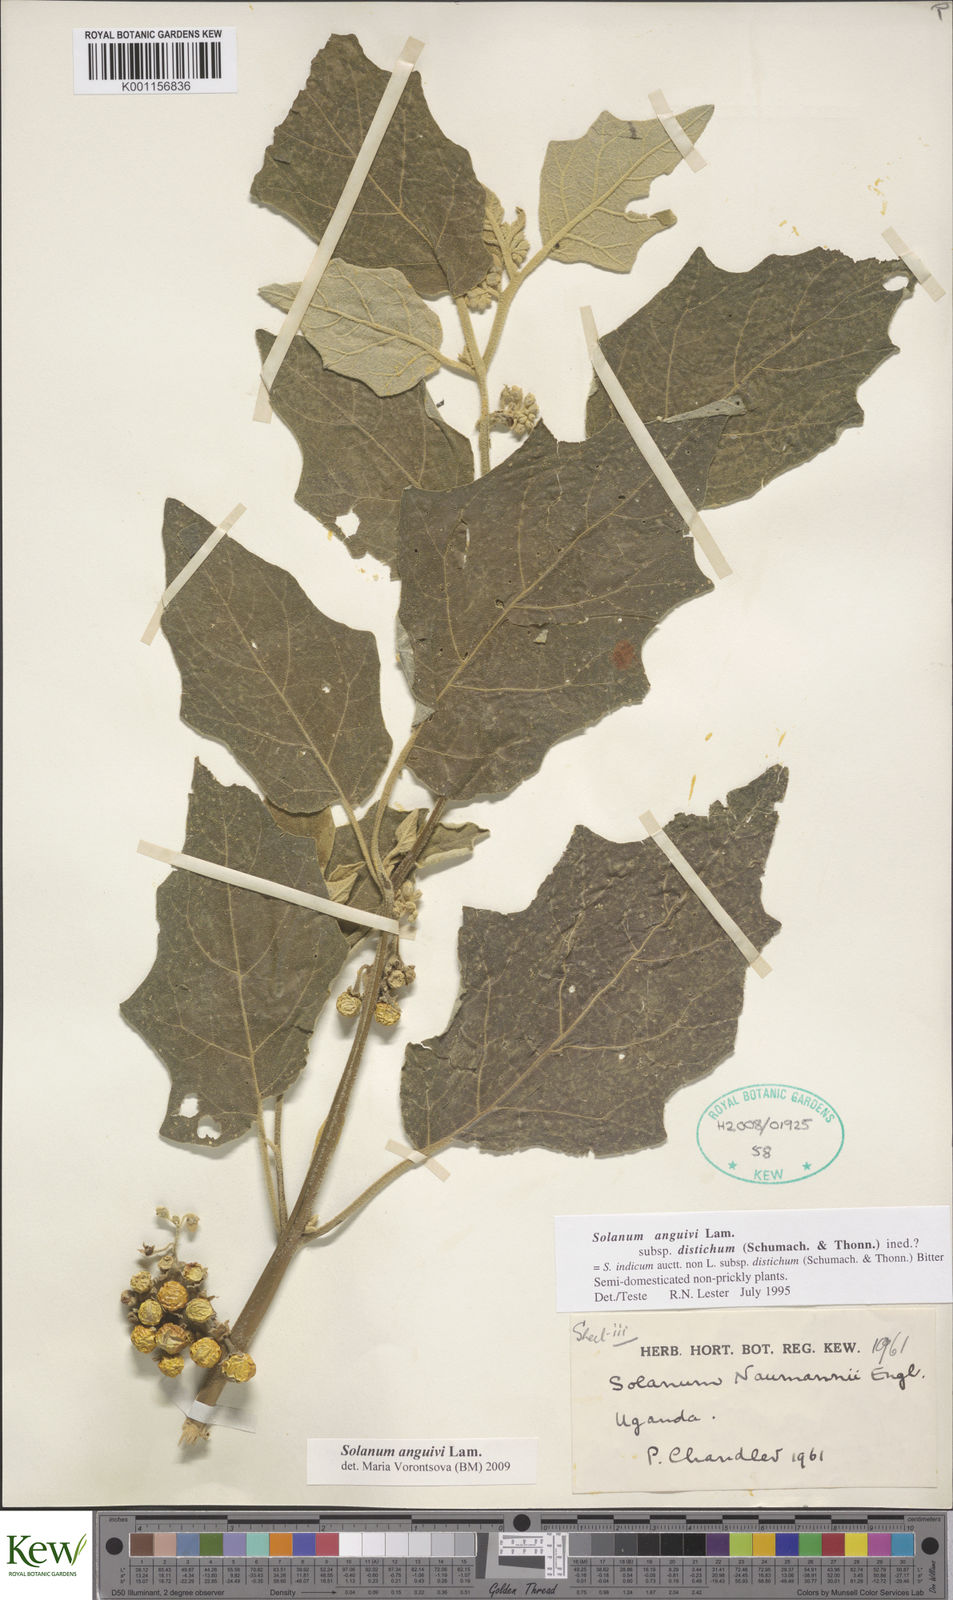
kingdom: Plantae
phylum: Tracheophyta
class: Magnoliopsida
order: Solanales
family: Solanaceae
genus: Solanum
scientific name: Solanum anguivi
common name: Forest bitterberry
